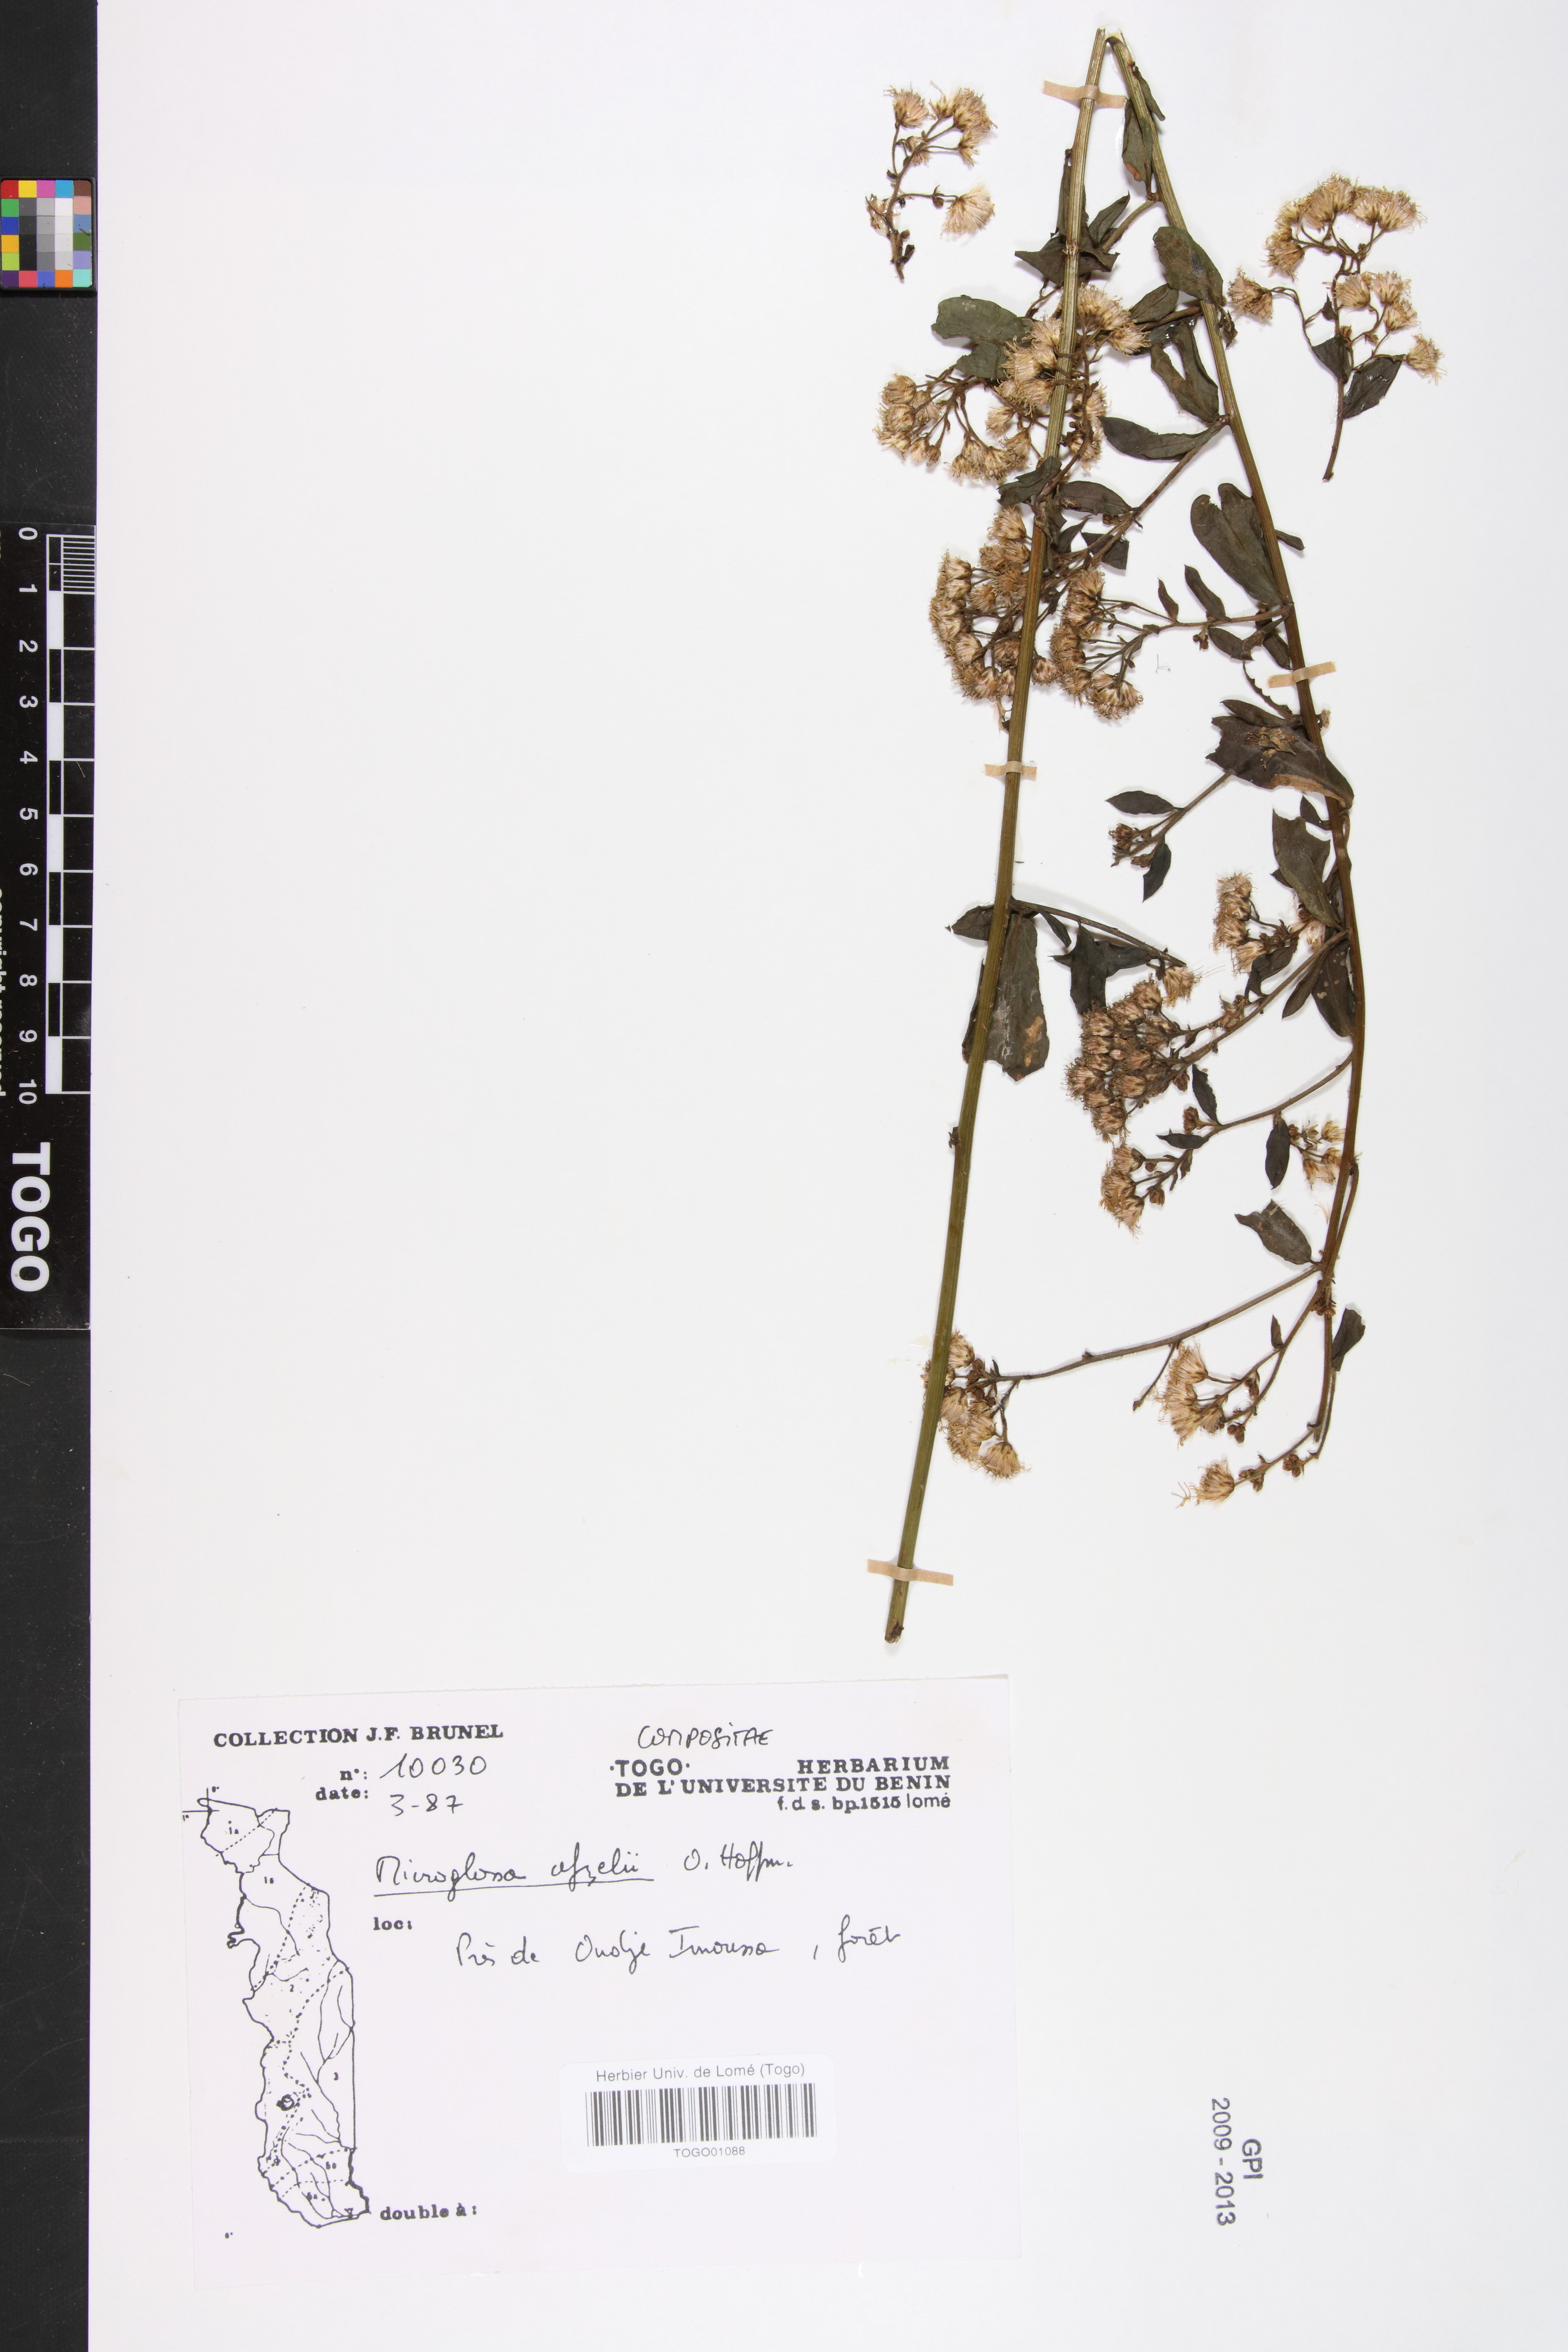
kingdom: Plantae
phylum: Tracheophyta
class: Magnoliopsida
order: Asterales
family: Asteraceae
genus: Microglossa
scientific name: Microglossa afzelii
